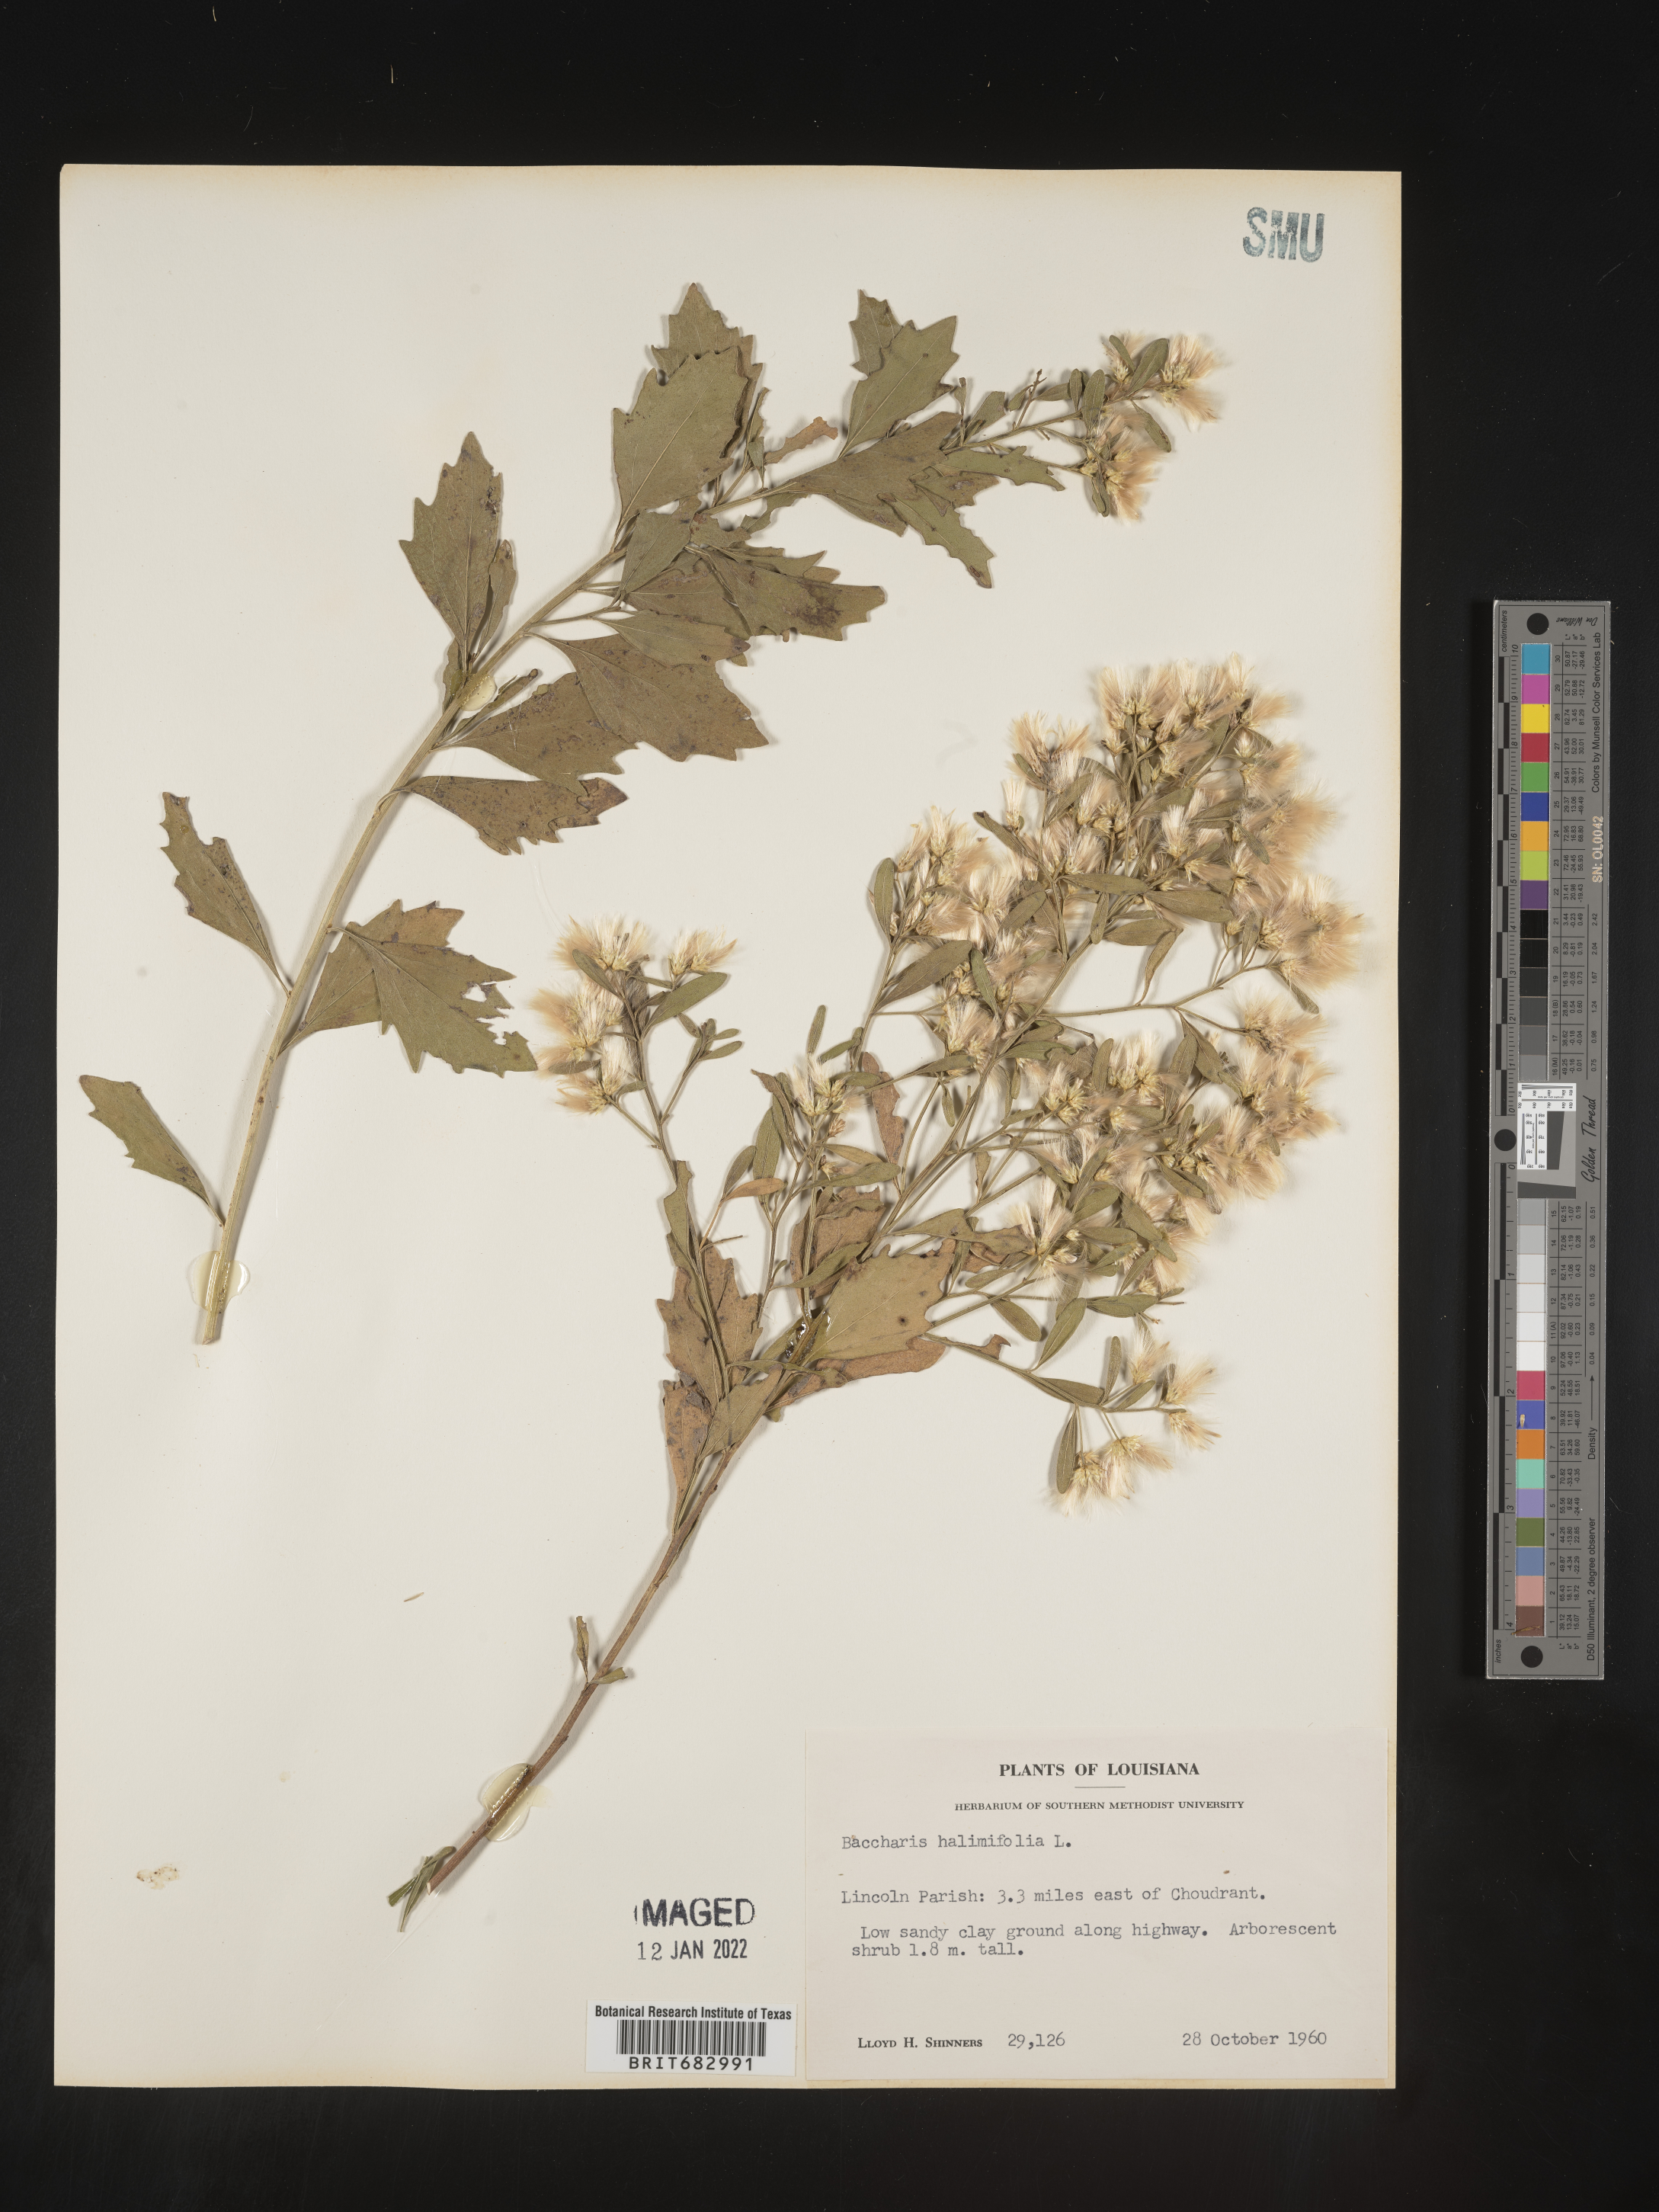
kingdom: Plantae
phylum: Tracheophyta
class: Magnoliopsida
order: Asterales
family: Asteraceae
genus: Nidorella
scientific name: Nidorella ivifolia
